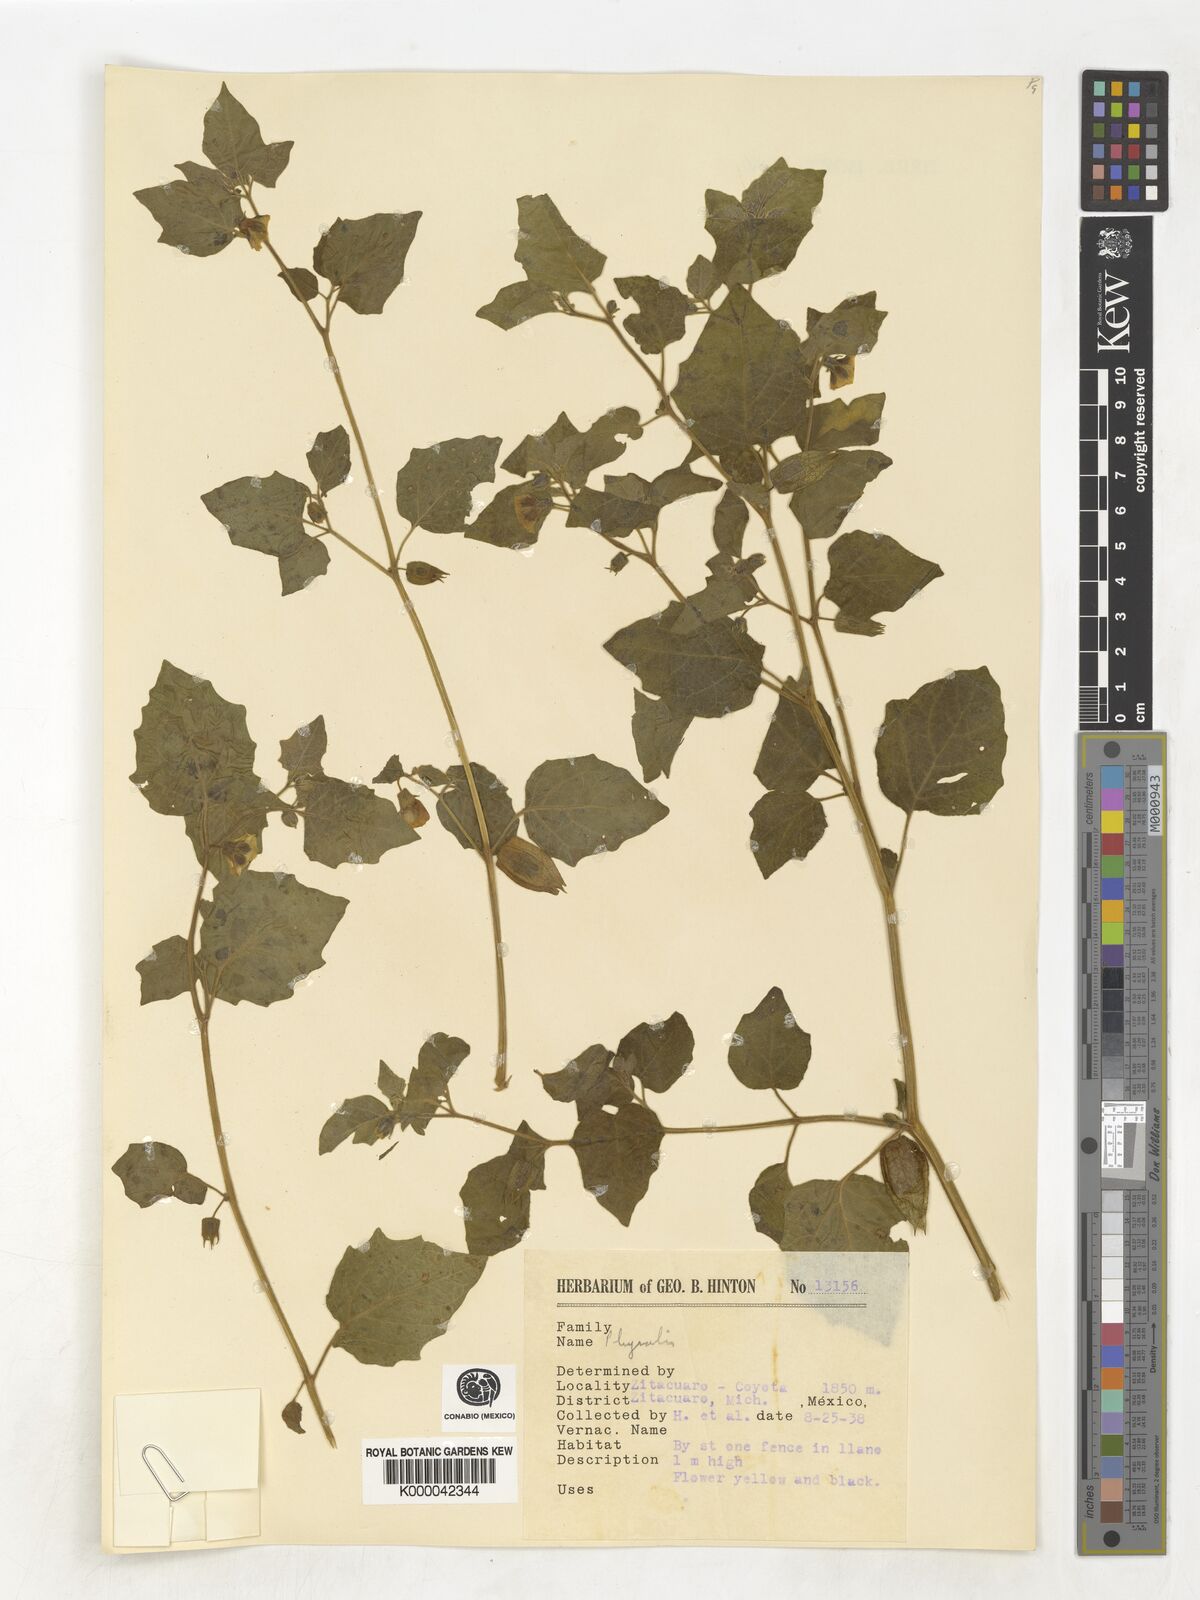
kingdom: Plantae
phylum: Tracheophyta
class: Magnoliopsida
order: Solanales
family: Solanaceae
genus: Physalis
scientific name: Physalis
